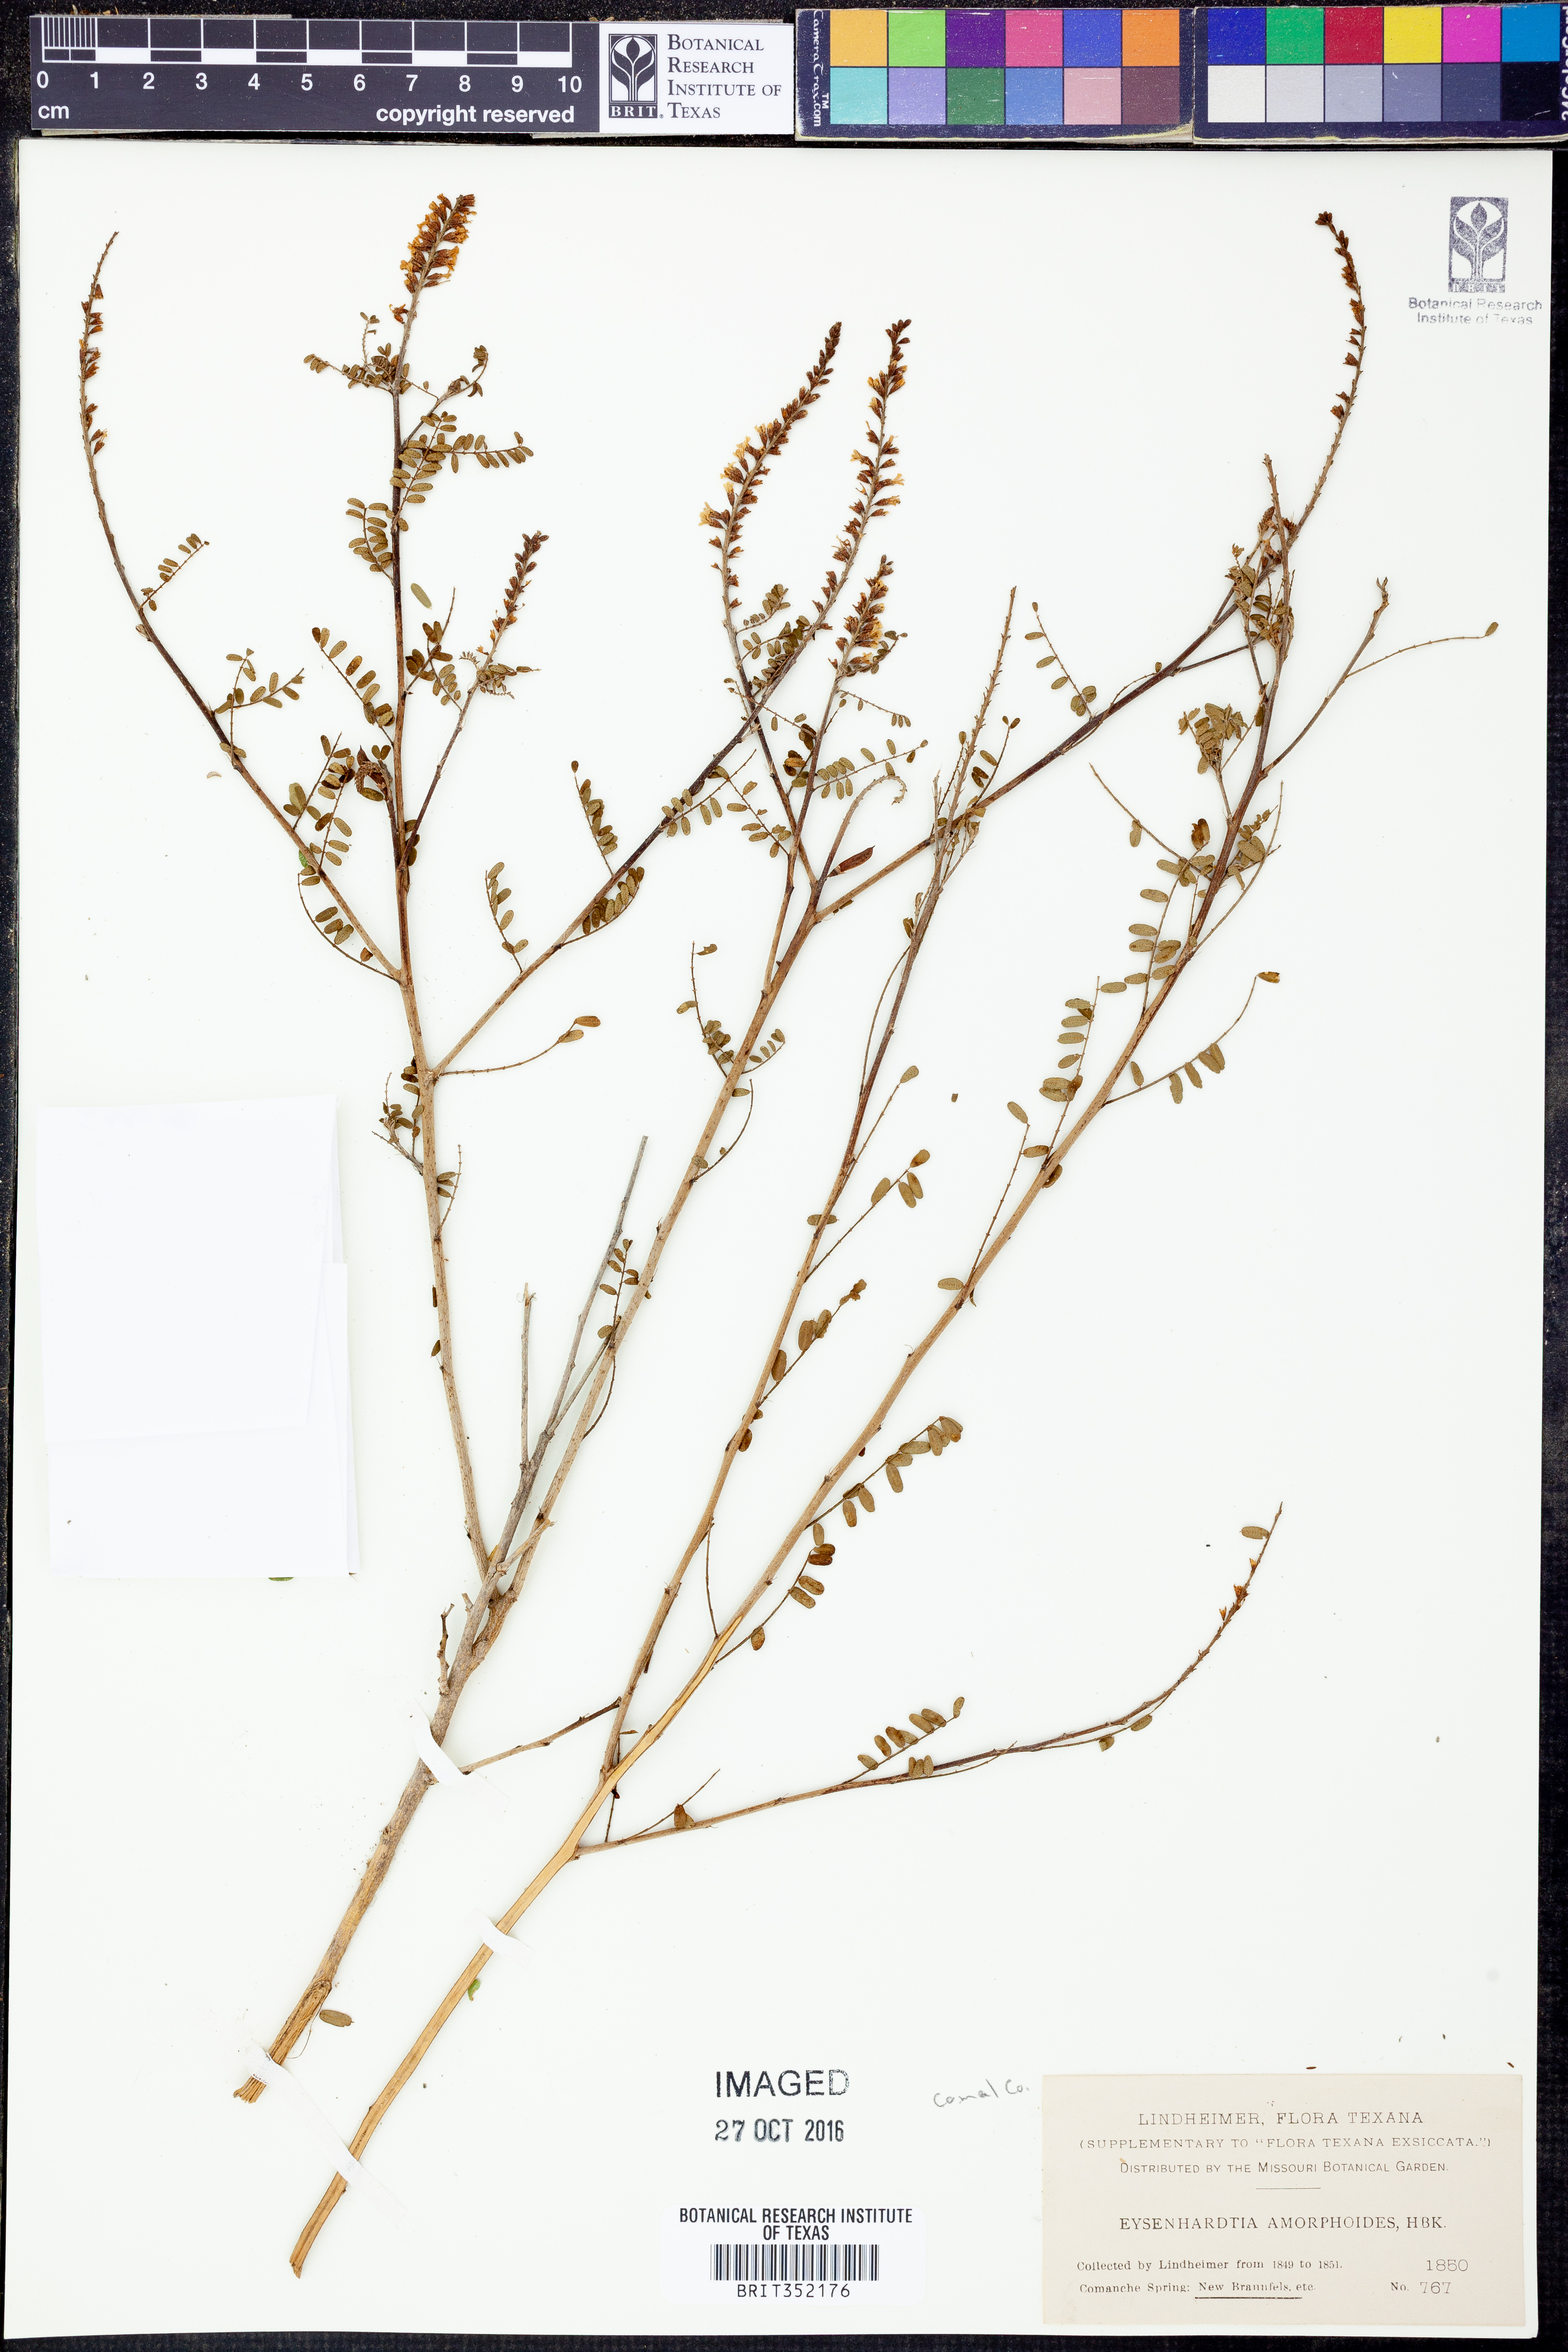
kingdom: Plantae
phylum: Tracheophyta
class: Magnoliopsida
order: Fabales
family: Fabaceae
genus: Eysenhardtia
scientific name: Eysenhardtia polystachya
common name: Kidneywood
